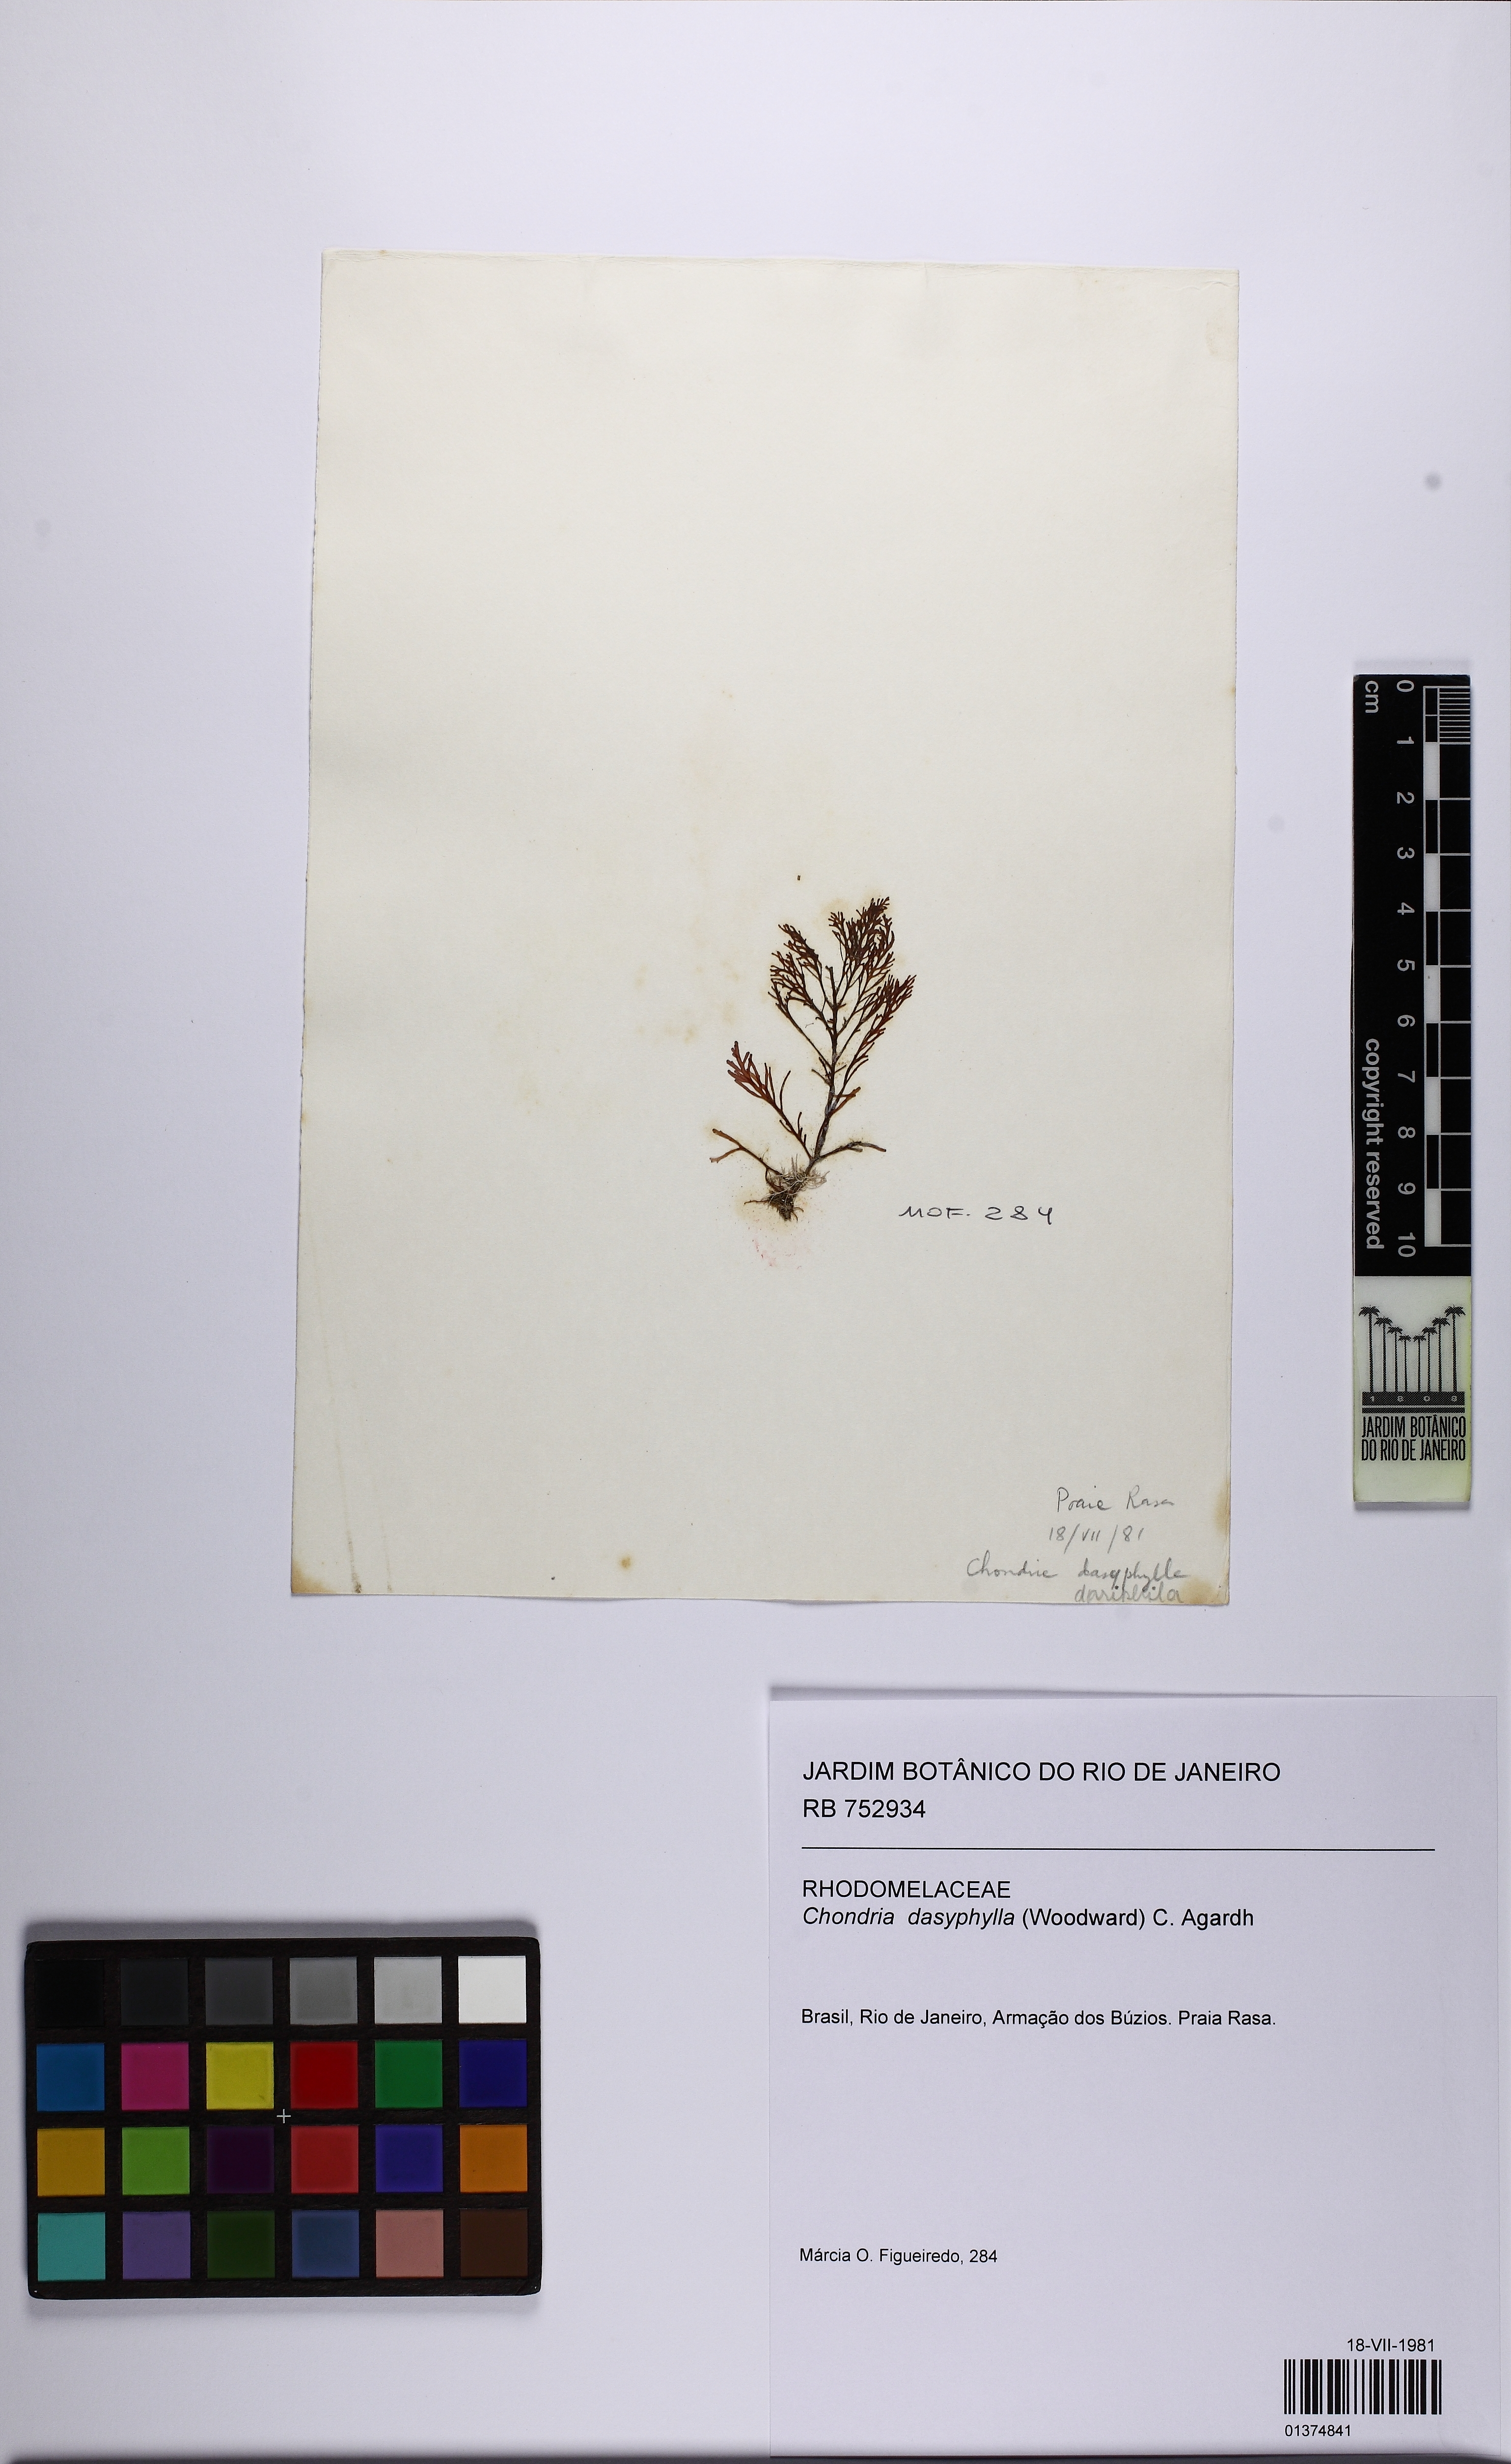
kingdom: Plantae
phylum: Rhodophyta
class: Florideophyceae
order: Ceramiales
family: Rhodomelaceae
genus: Chondria
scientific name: Chondria dasyphylla
